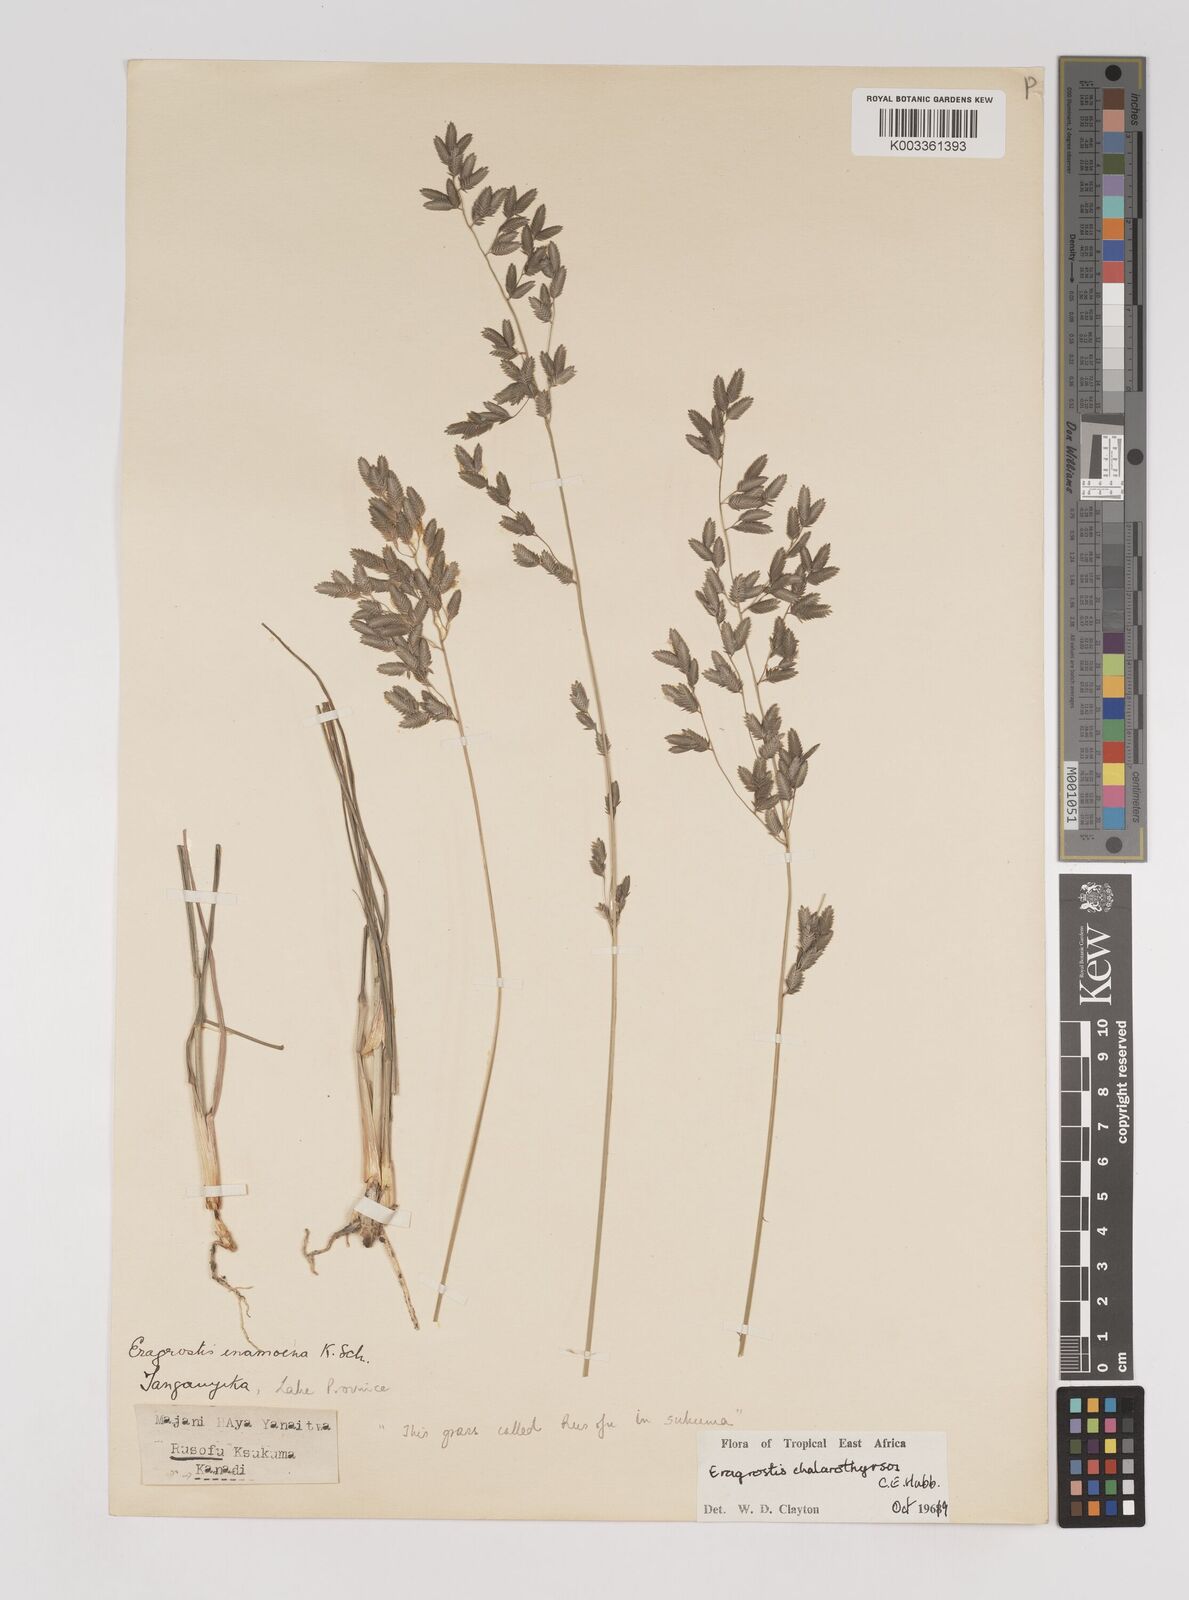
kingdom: Plantae
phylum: Tracheophyta
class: Liliopsida
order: Poales
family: Poaceae
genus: Eragrostis
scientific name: Eragrostis chalarothyrsos
